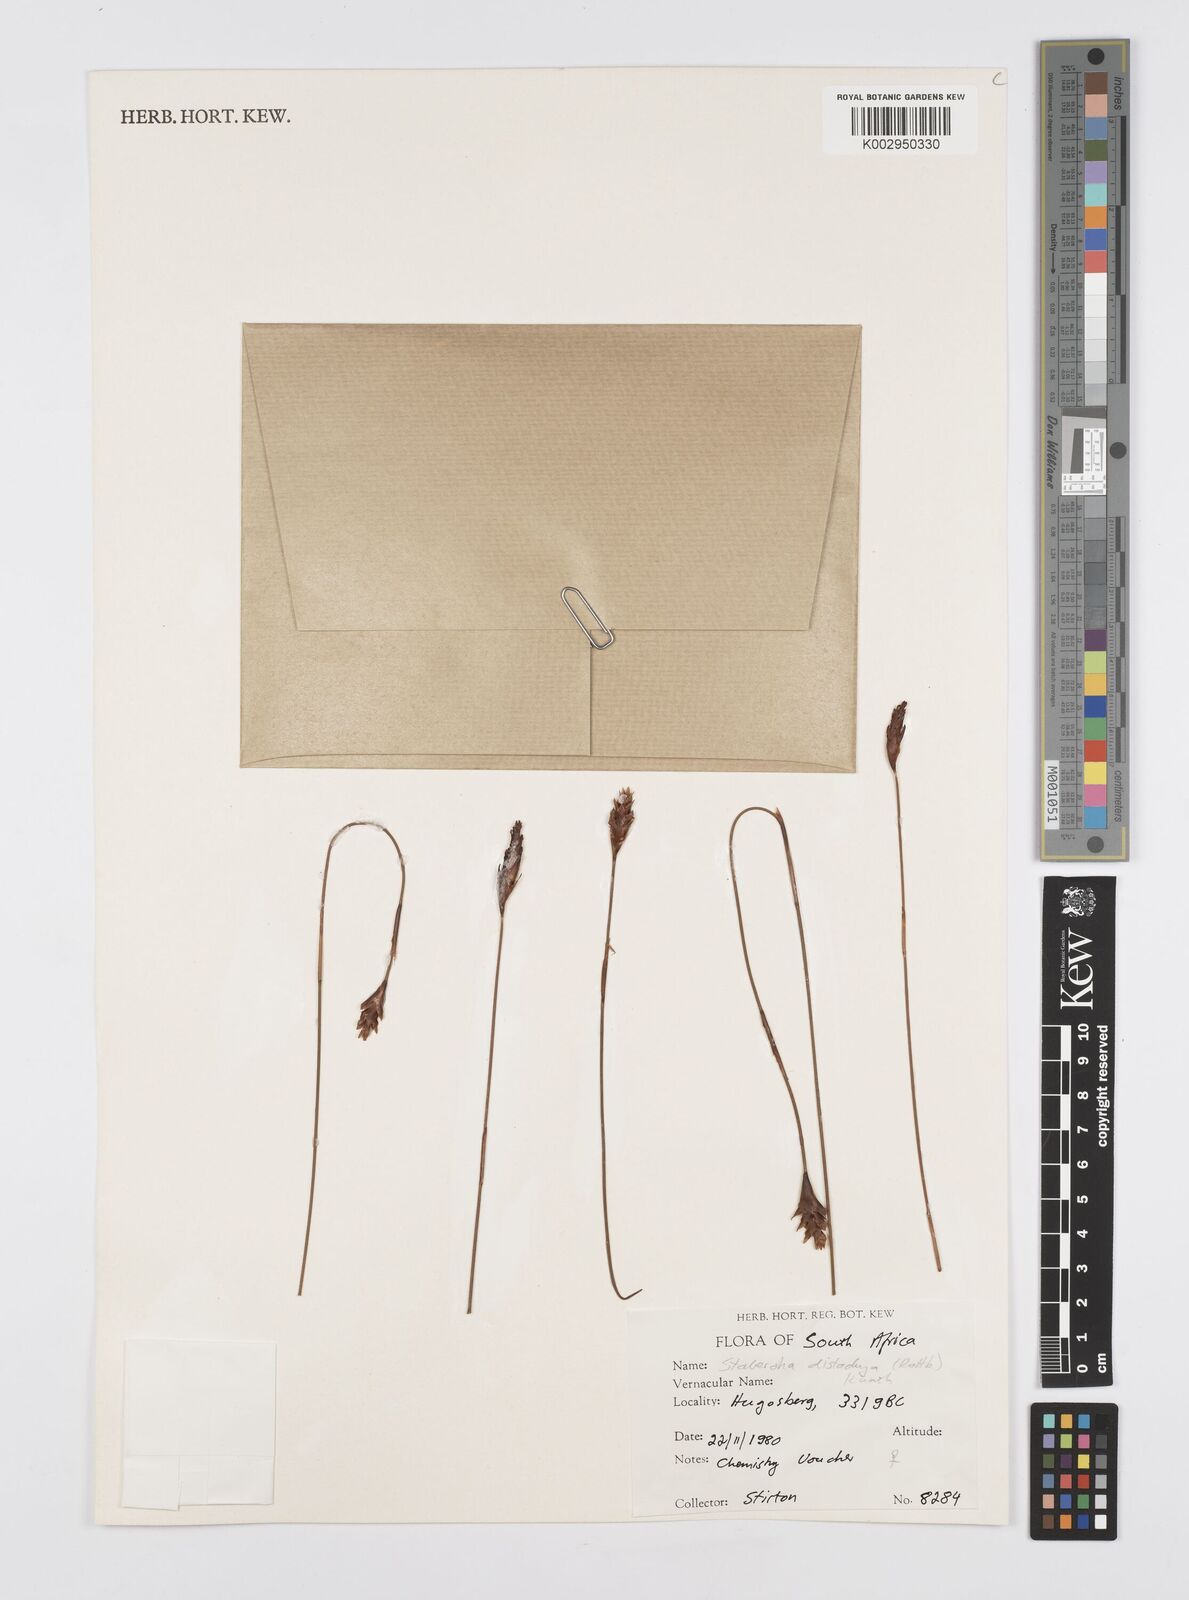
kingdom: Plantae
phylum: Tracheophyta
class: Liliopsida
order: Poales
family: Restionaceae
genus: Staberoha
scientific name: Staberoha distachyos
